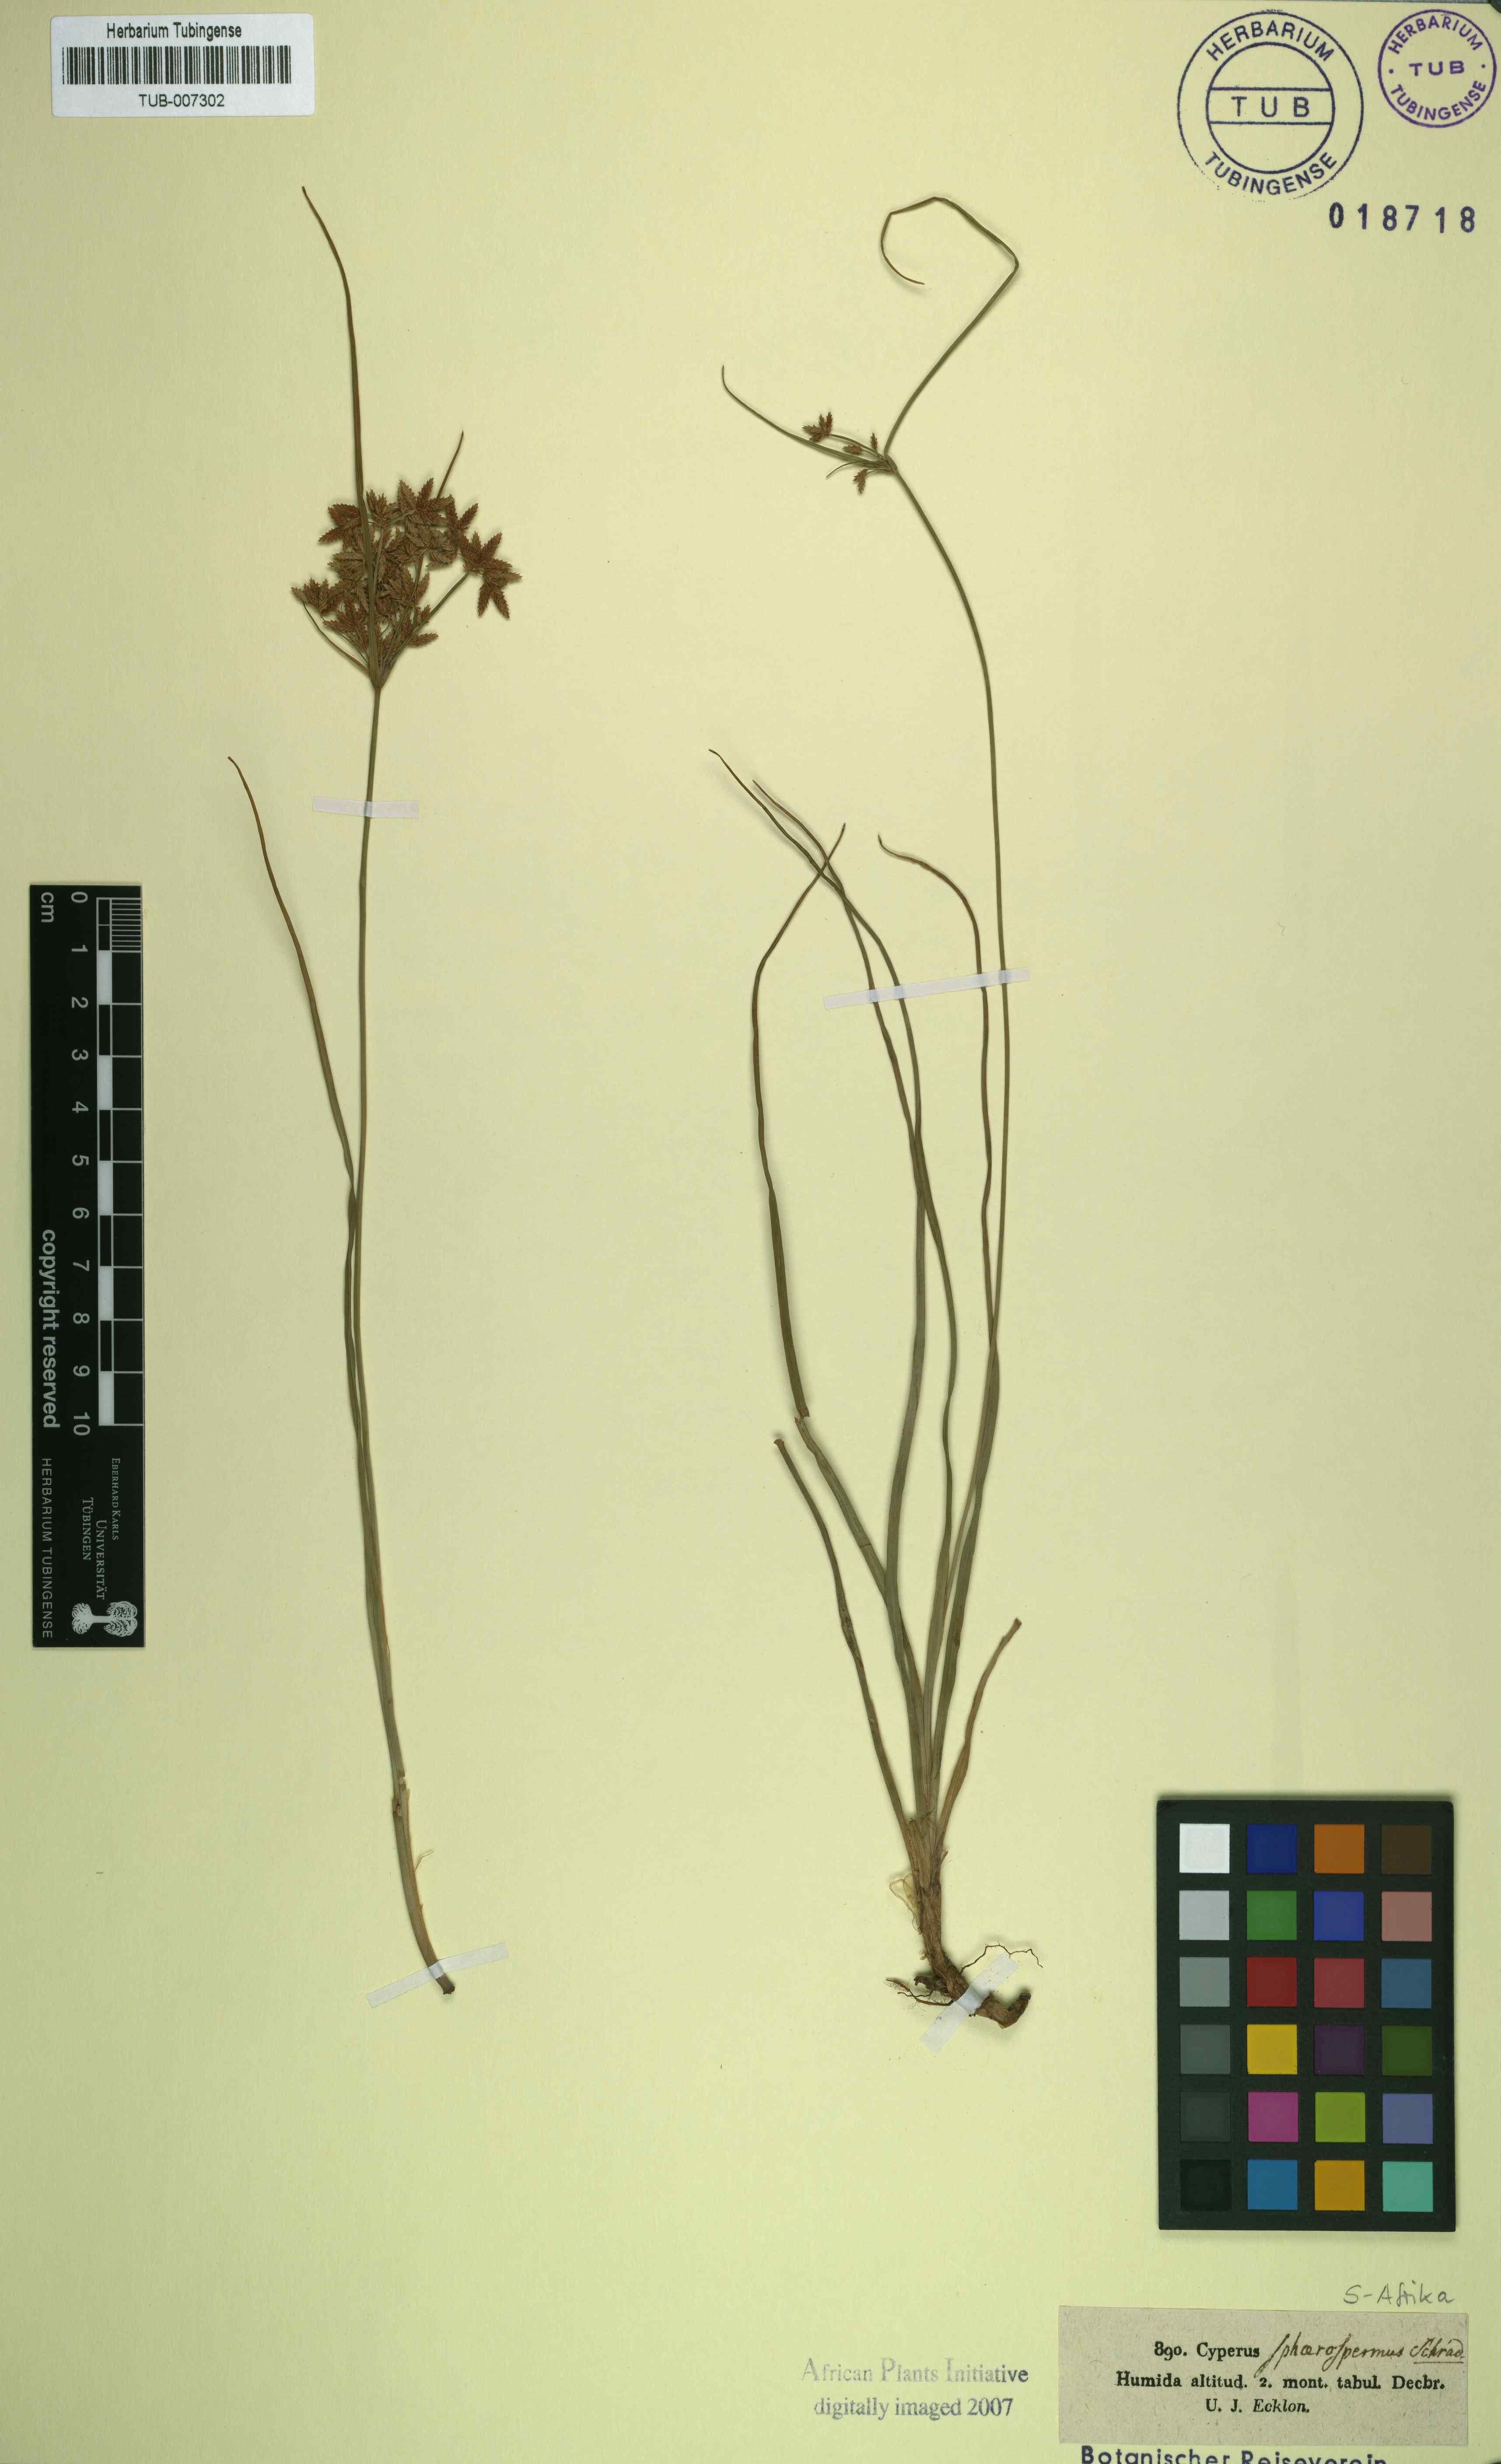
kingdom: Plantae
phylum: Tracheophyta
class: Liliopsida
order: Poales
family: Cyperaceae
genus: Cyperus
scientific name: Cyperus sphaerospermus
